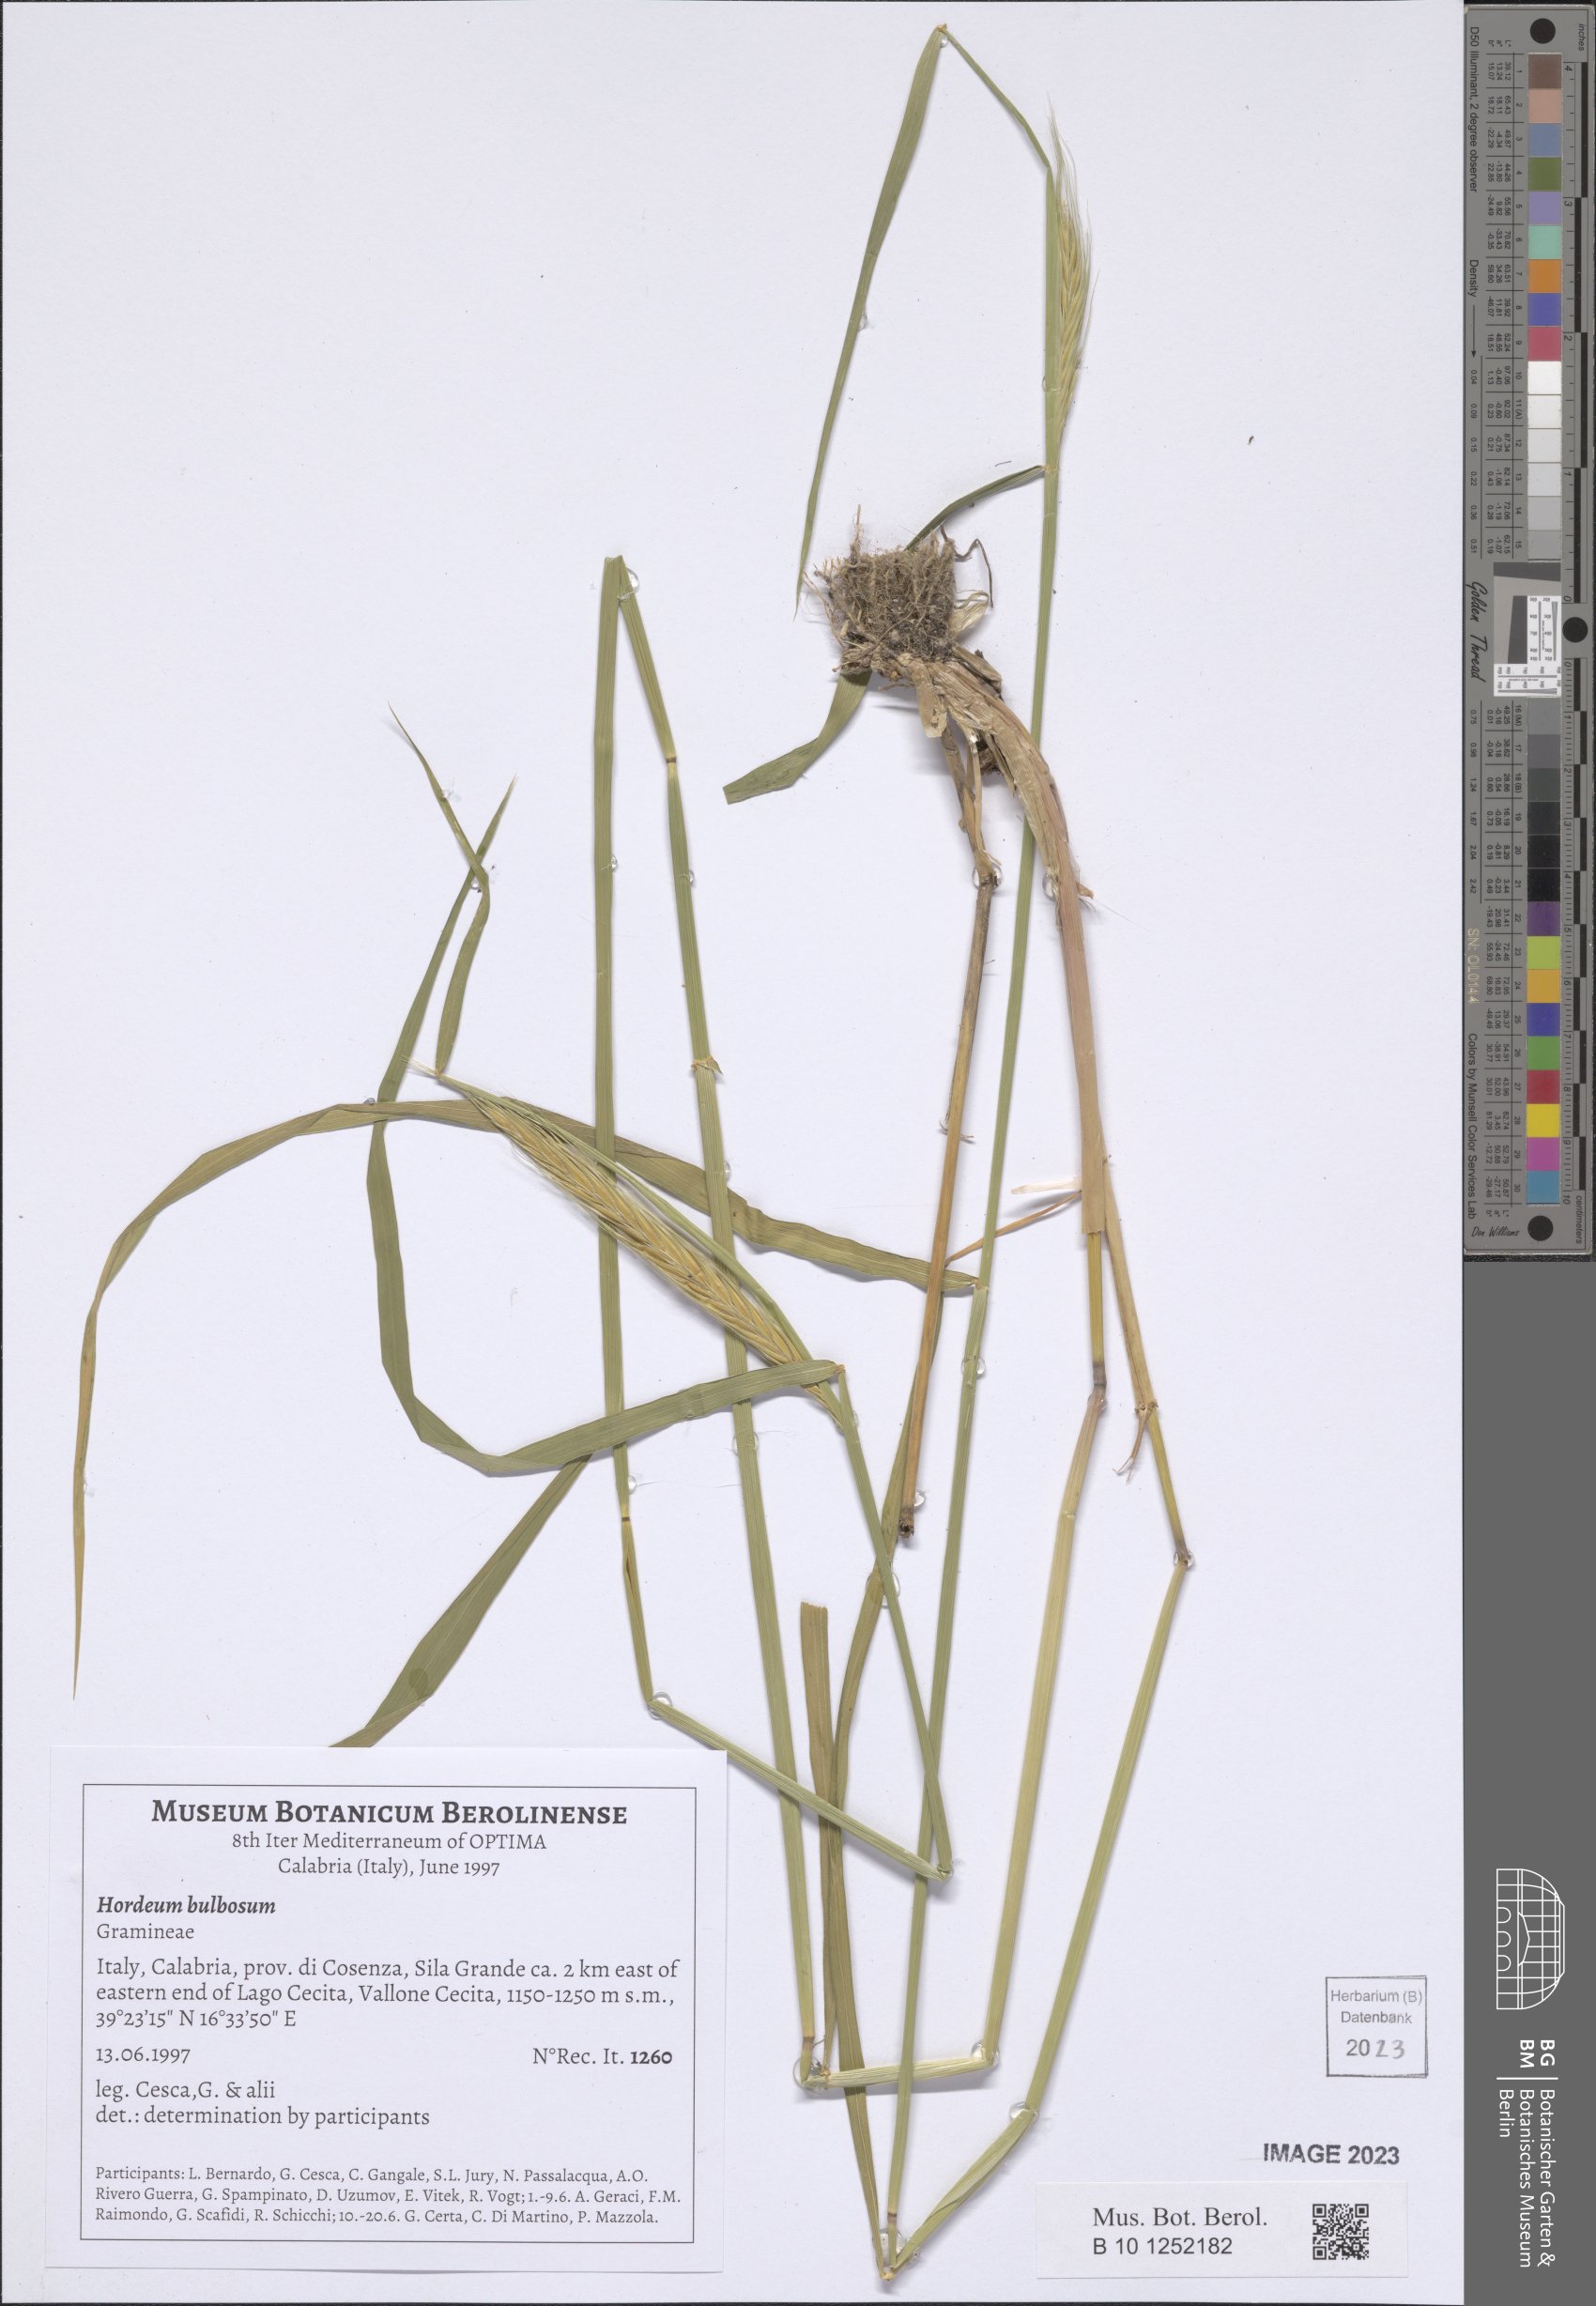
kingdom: Plantae
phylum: Tracheophyta
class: Liliopsida
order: Poales
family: Poaceae
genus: Hordeum
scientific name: Hordeum bulbosum
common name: Bulbous barley
